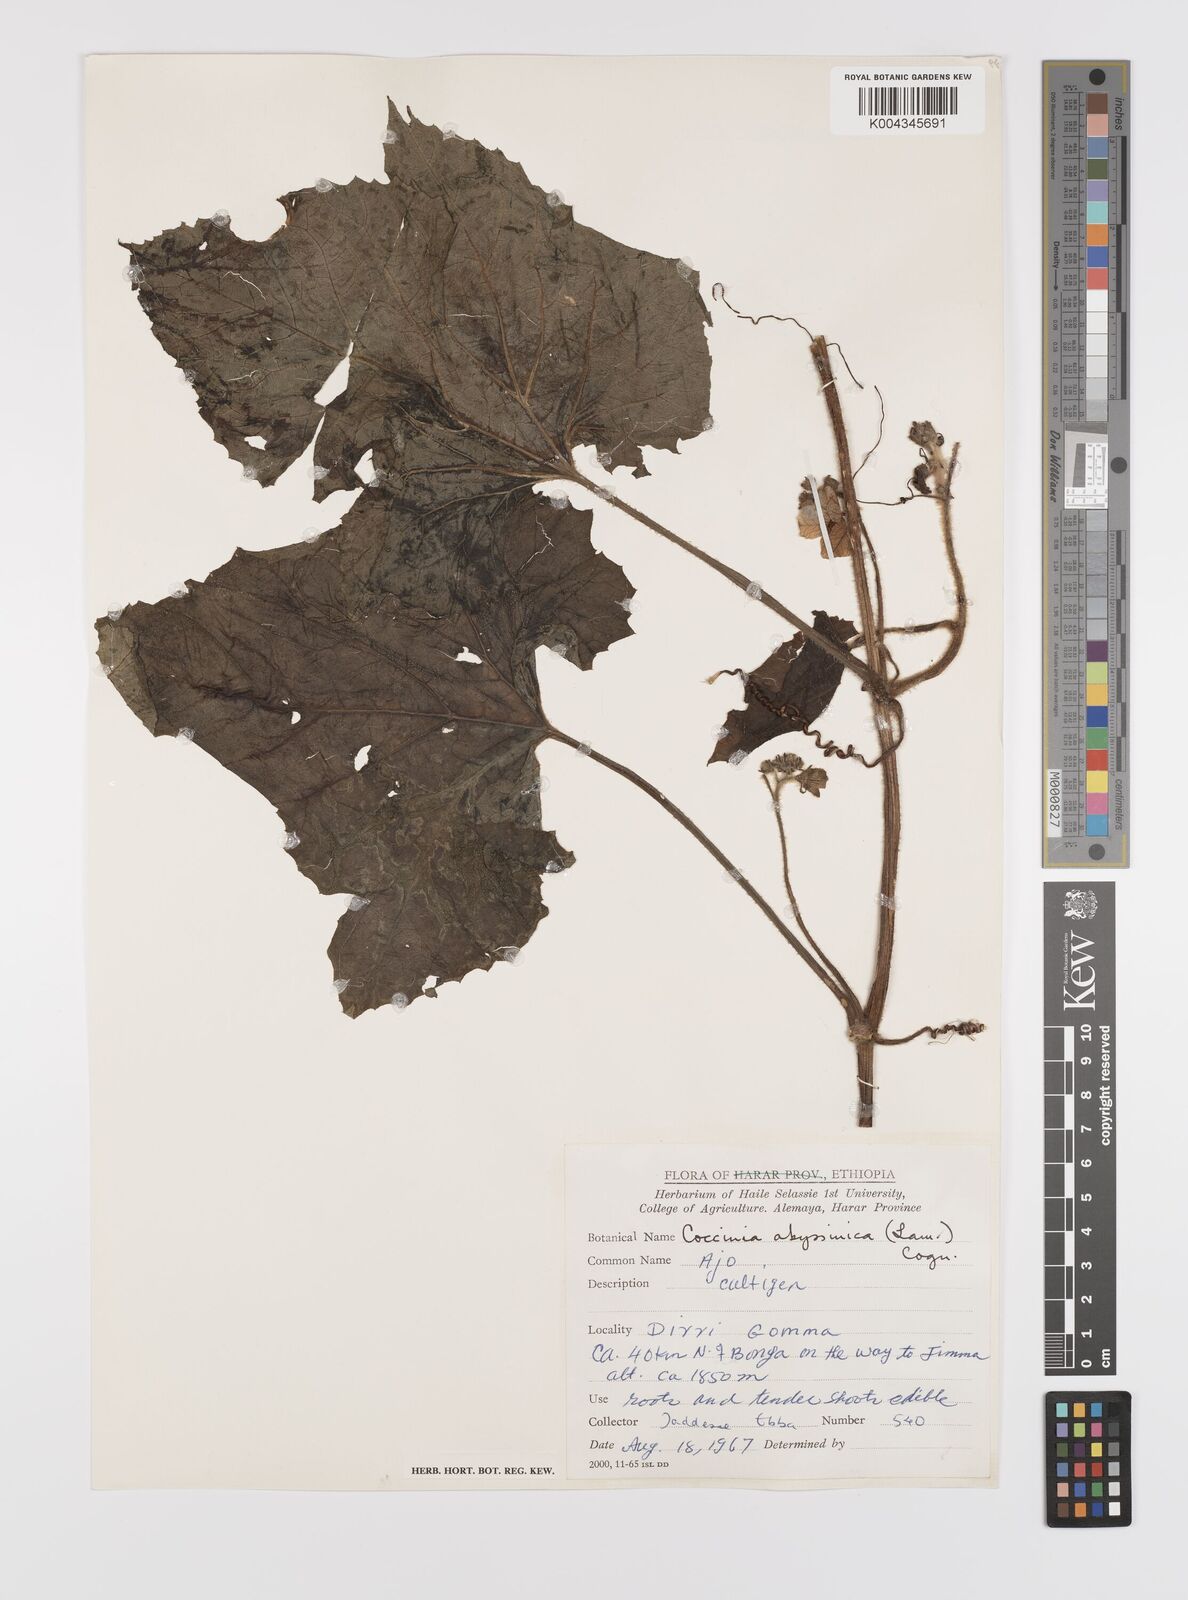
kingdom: Plantae
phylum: Tracheophyta
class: Magnoliopsida
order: Cucurbitales
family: Cucurbitaceae
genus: Coccinia
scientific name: Coccinia abyssinica
